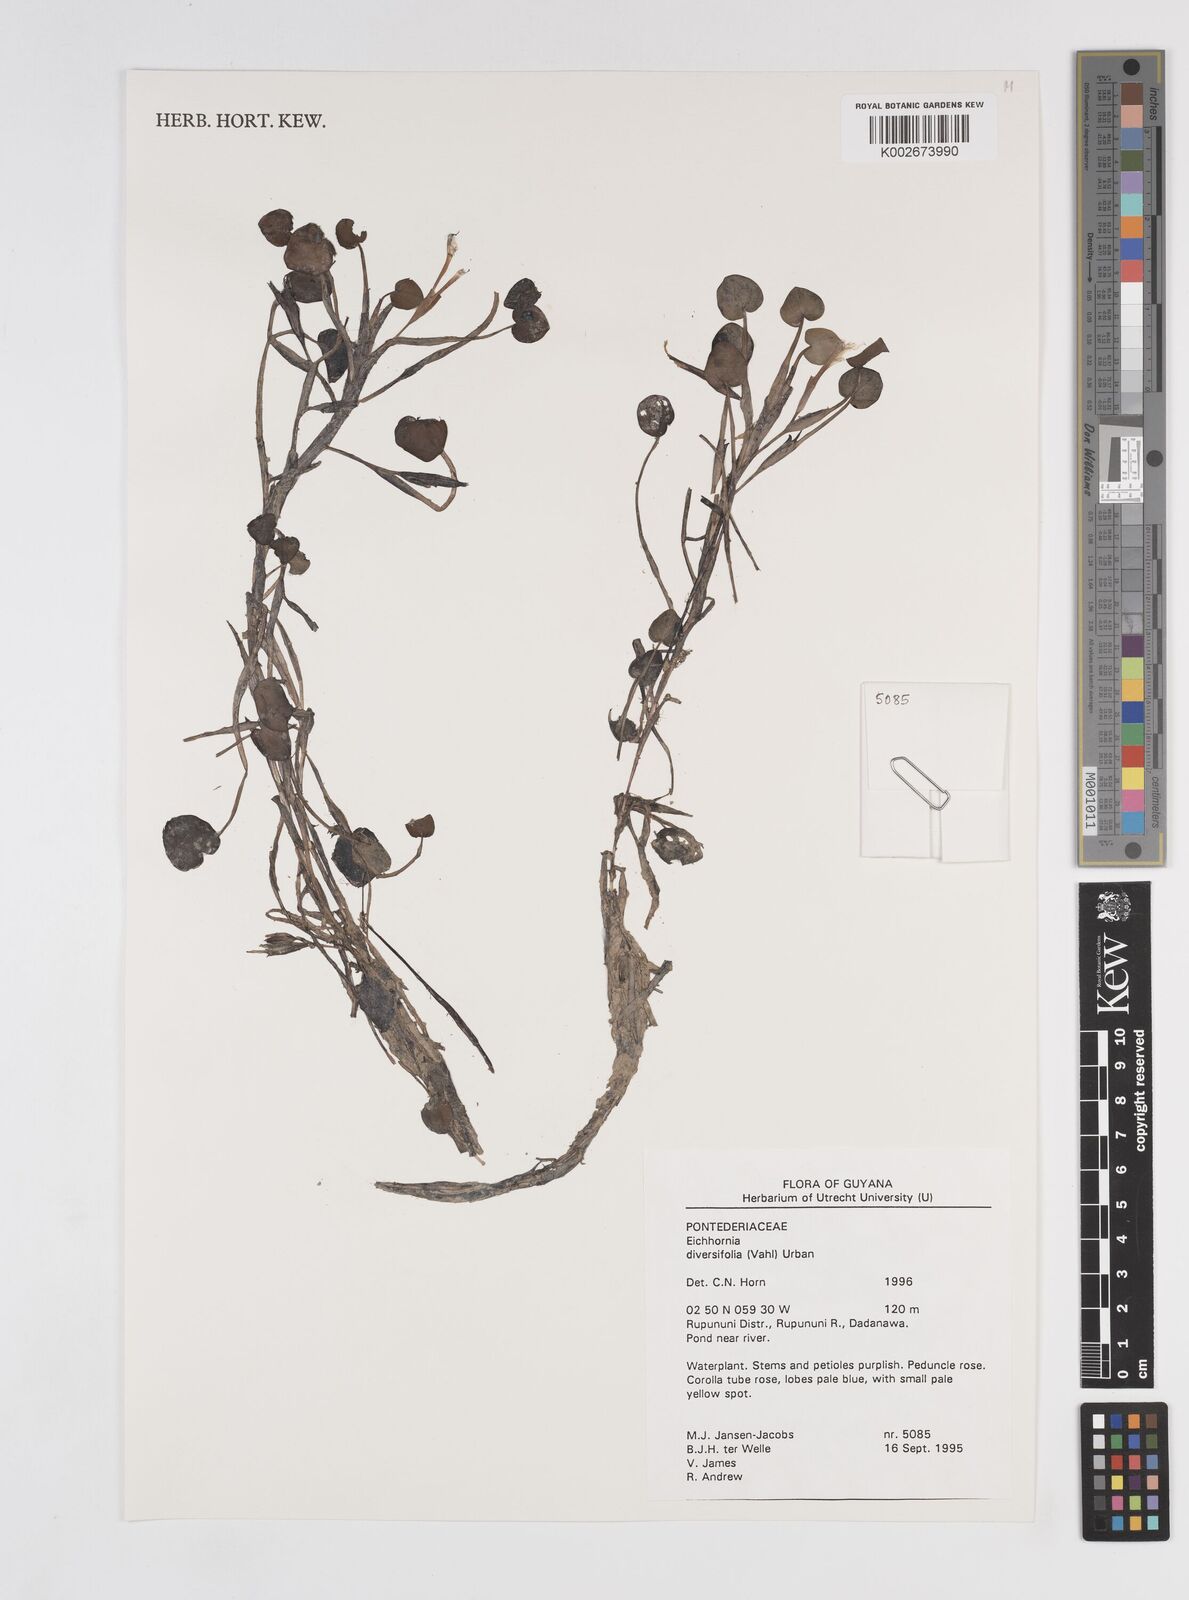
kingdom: Plantae
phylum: Tracheophyta
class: Liliopsida
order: Commelinales
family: Pontederiaceae
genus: Pontederia
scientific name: Pontederia diversifolia
